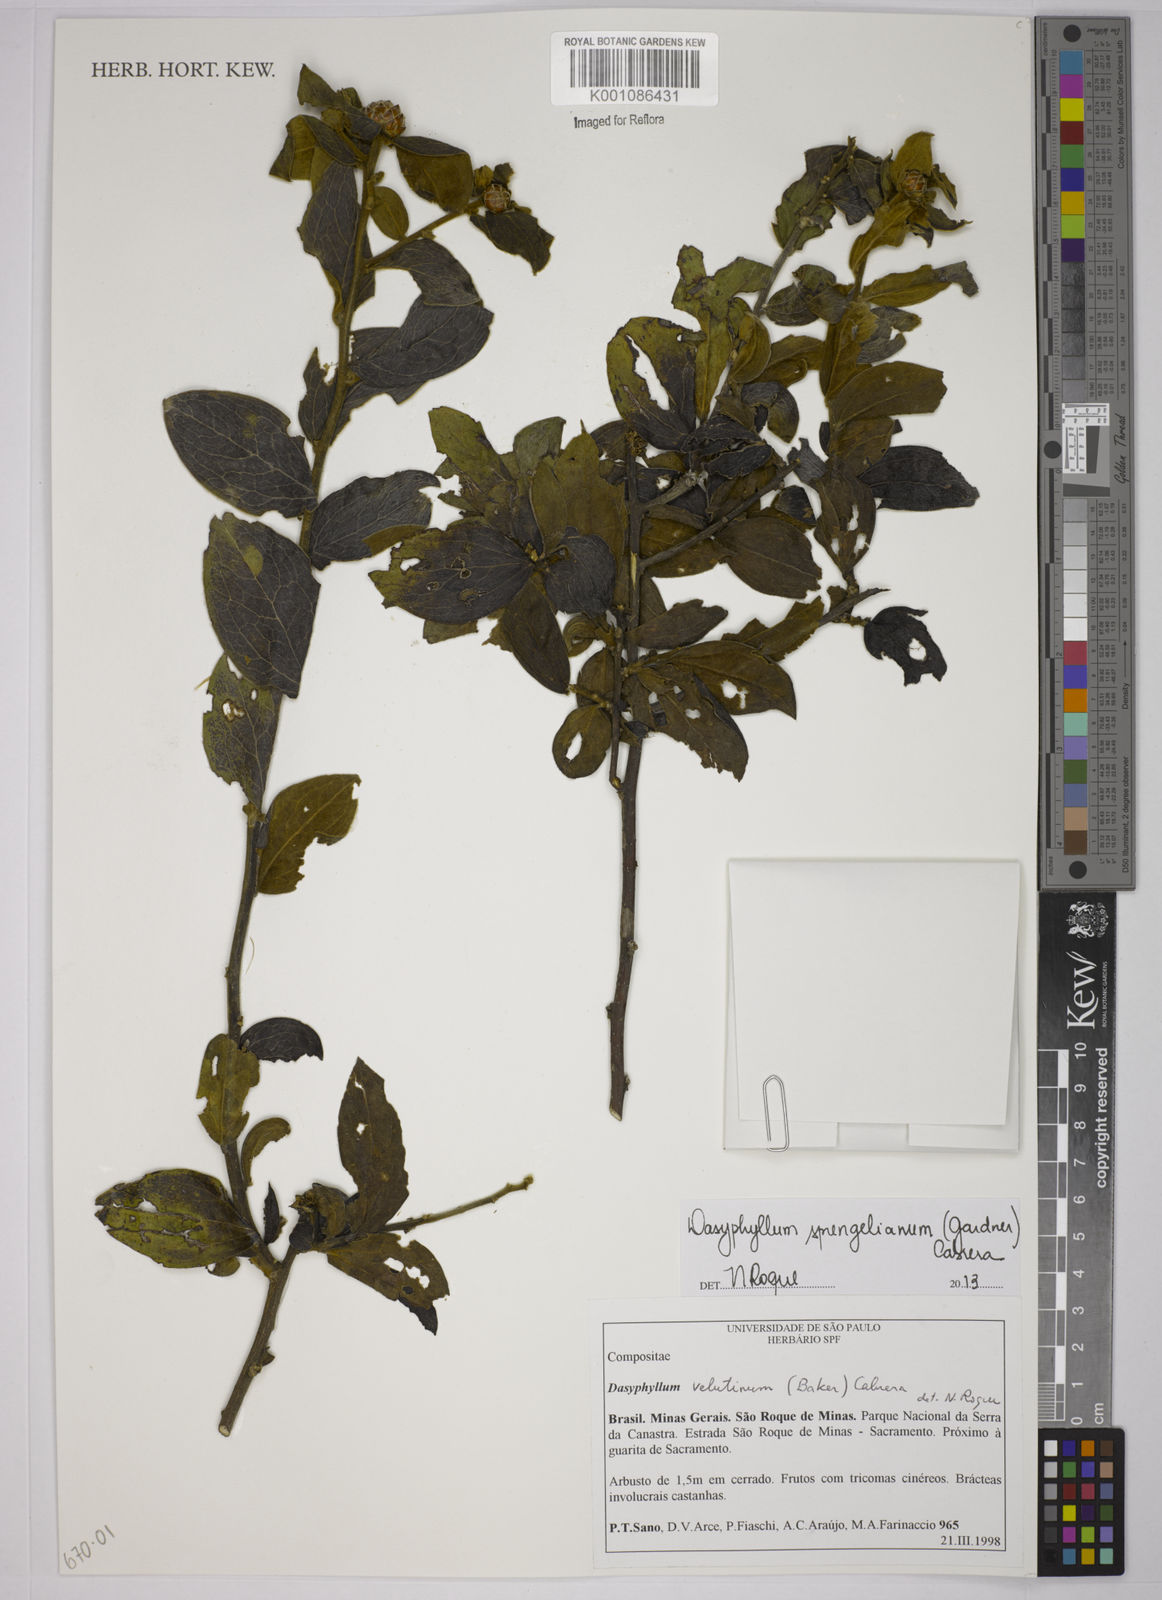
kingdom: Plantae
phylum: Tracheophyta
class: Magnoliopsida
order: Asterales
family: Asteraceae
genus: Dasyphyllum
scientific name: Dasyphyllum velutinum
